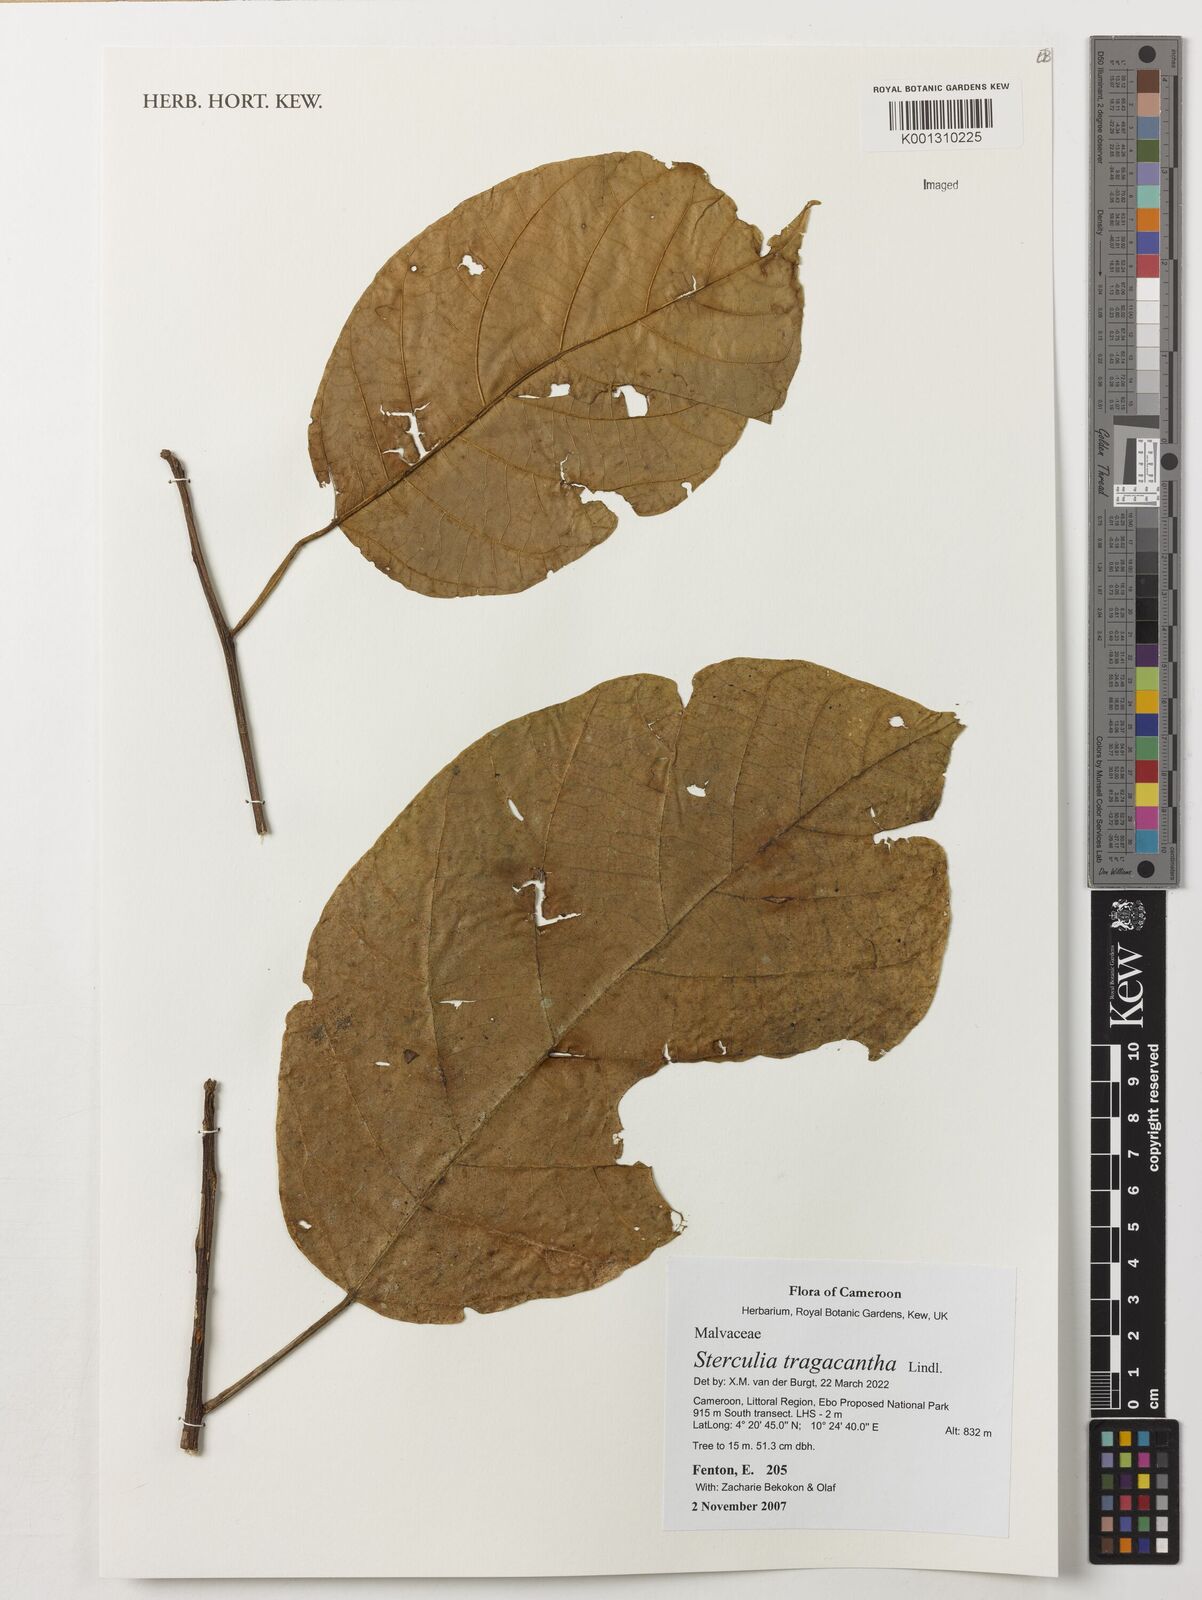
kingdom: Plantae
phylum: Tracheophyta
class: Magnoliopsida
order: Malvales
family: Malvaceae
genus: Sterculia
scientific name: Sterculia tragacantha
